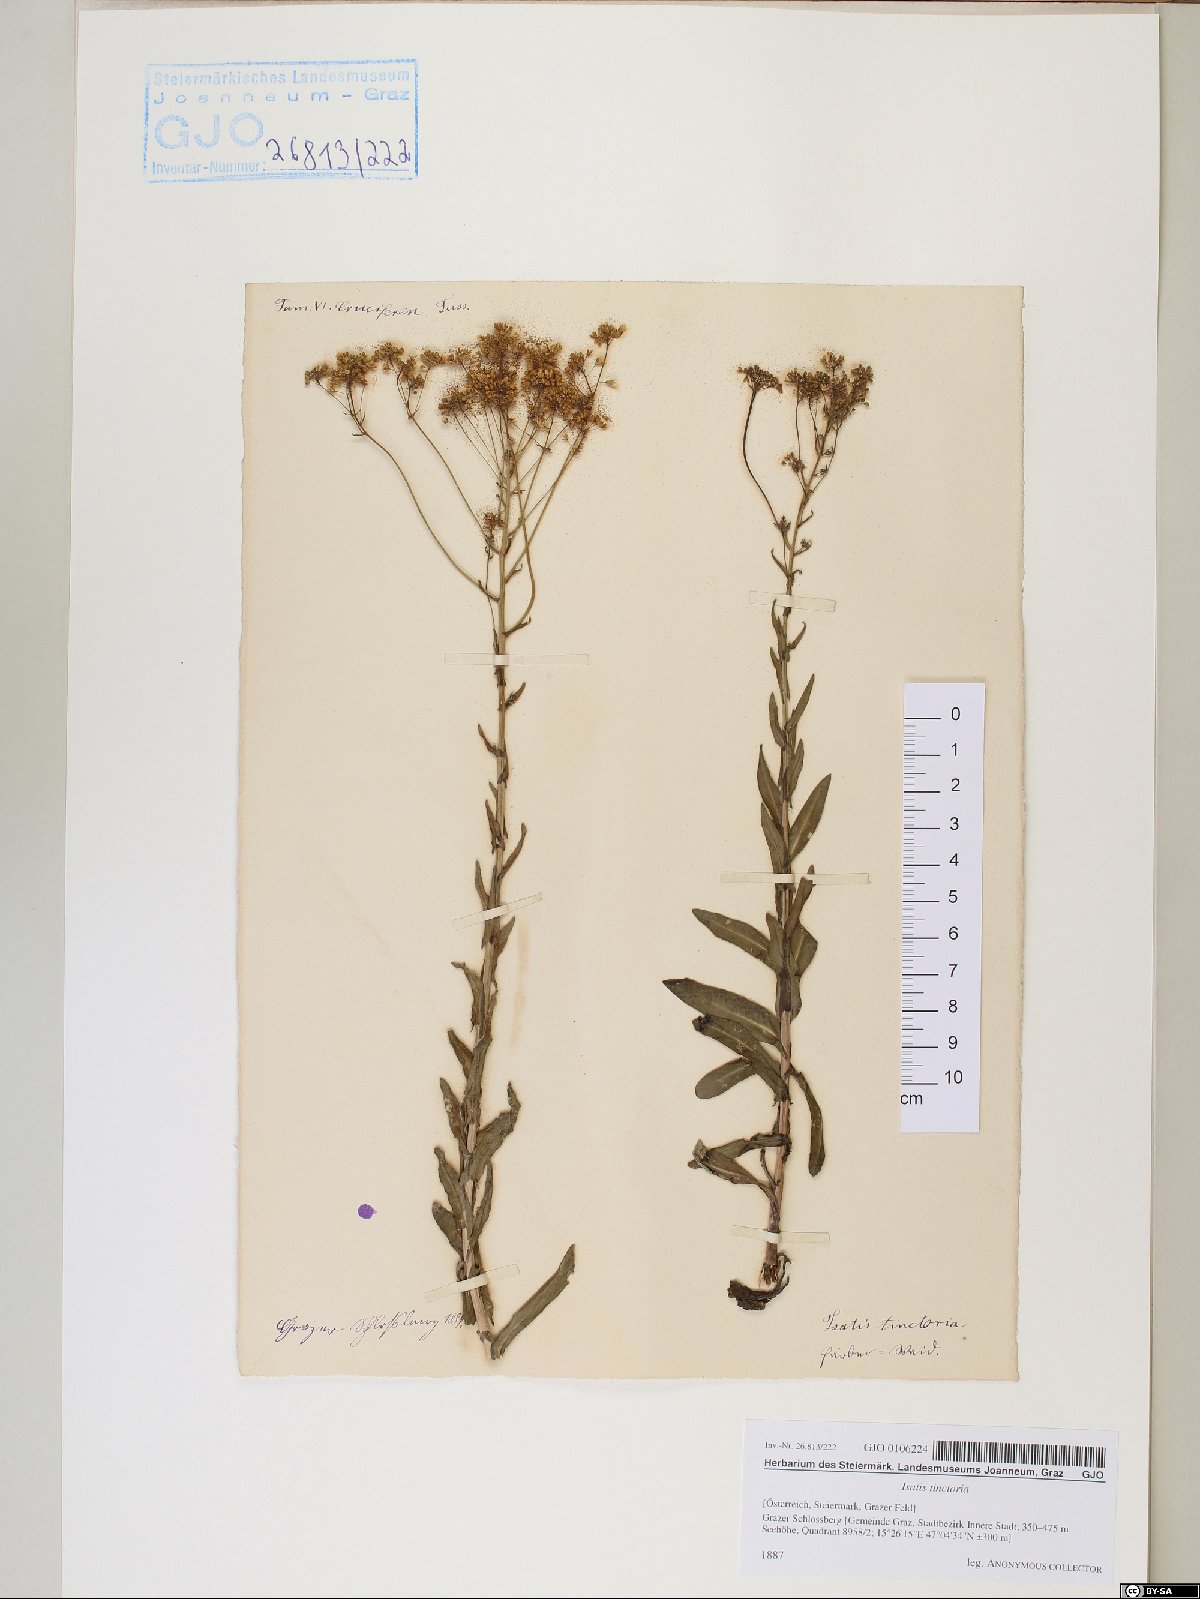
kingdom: Plantae
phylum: Tracheophyta
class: Magnoliopsida
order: Brassicales
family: Brassicaceae
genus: Isatis
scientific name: Isatis tinctoria
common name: Woad
